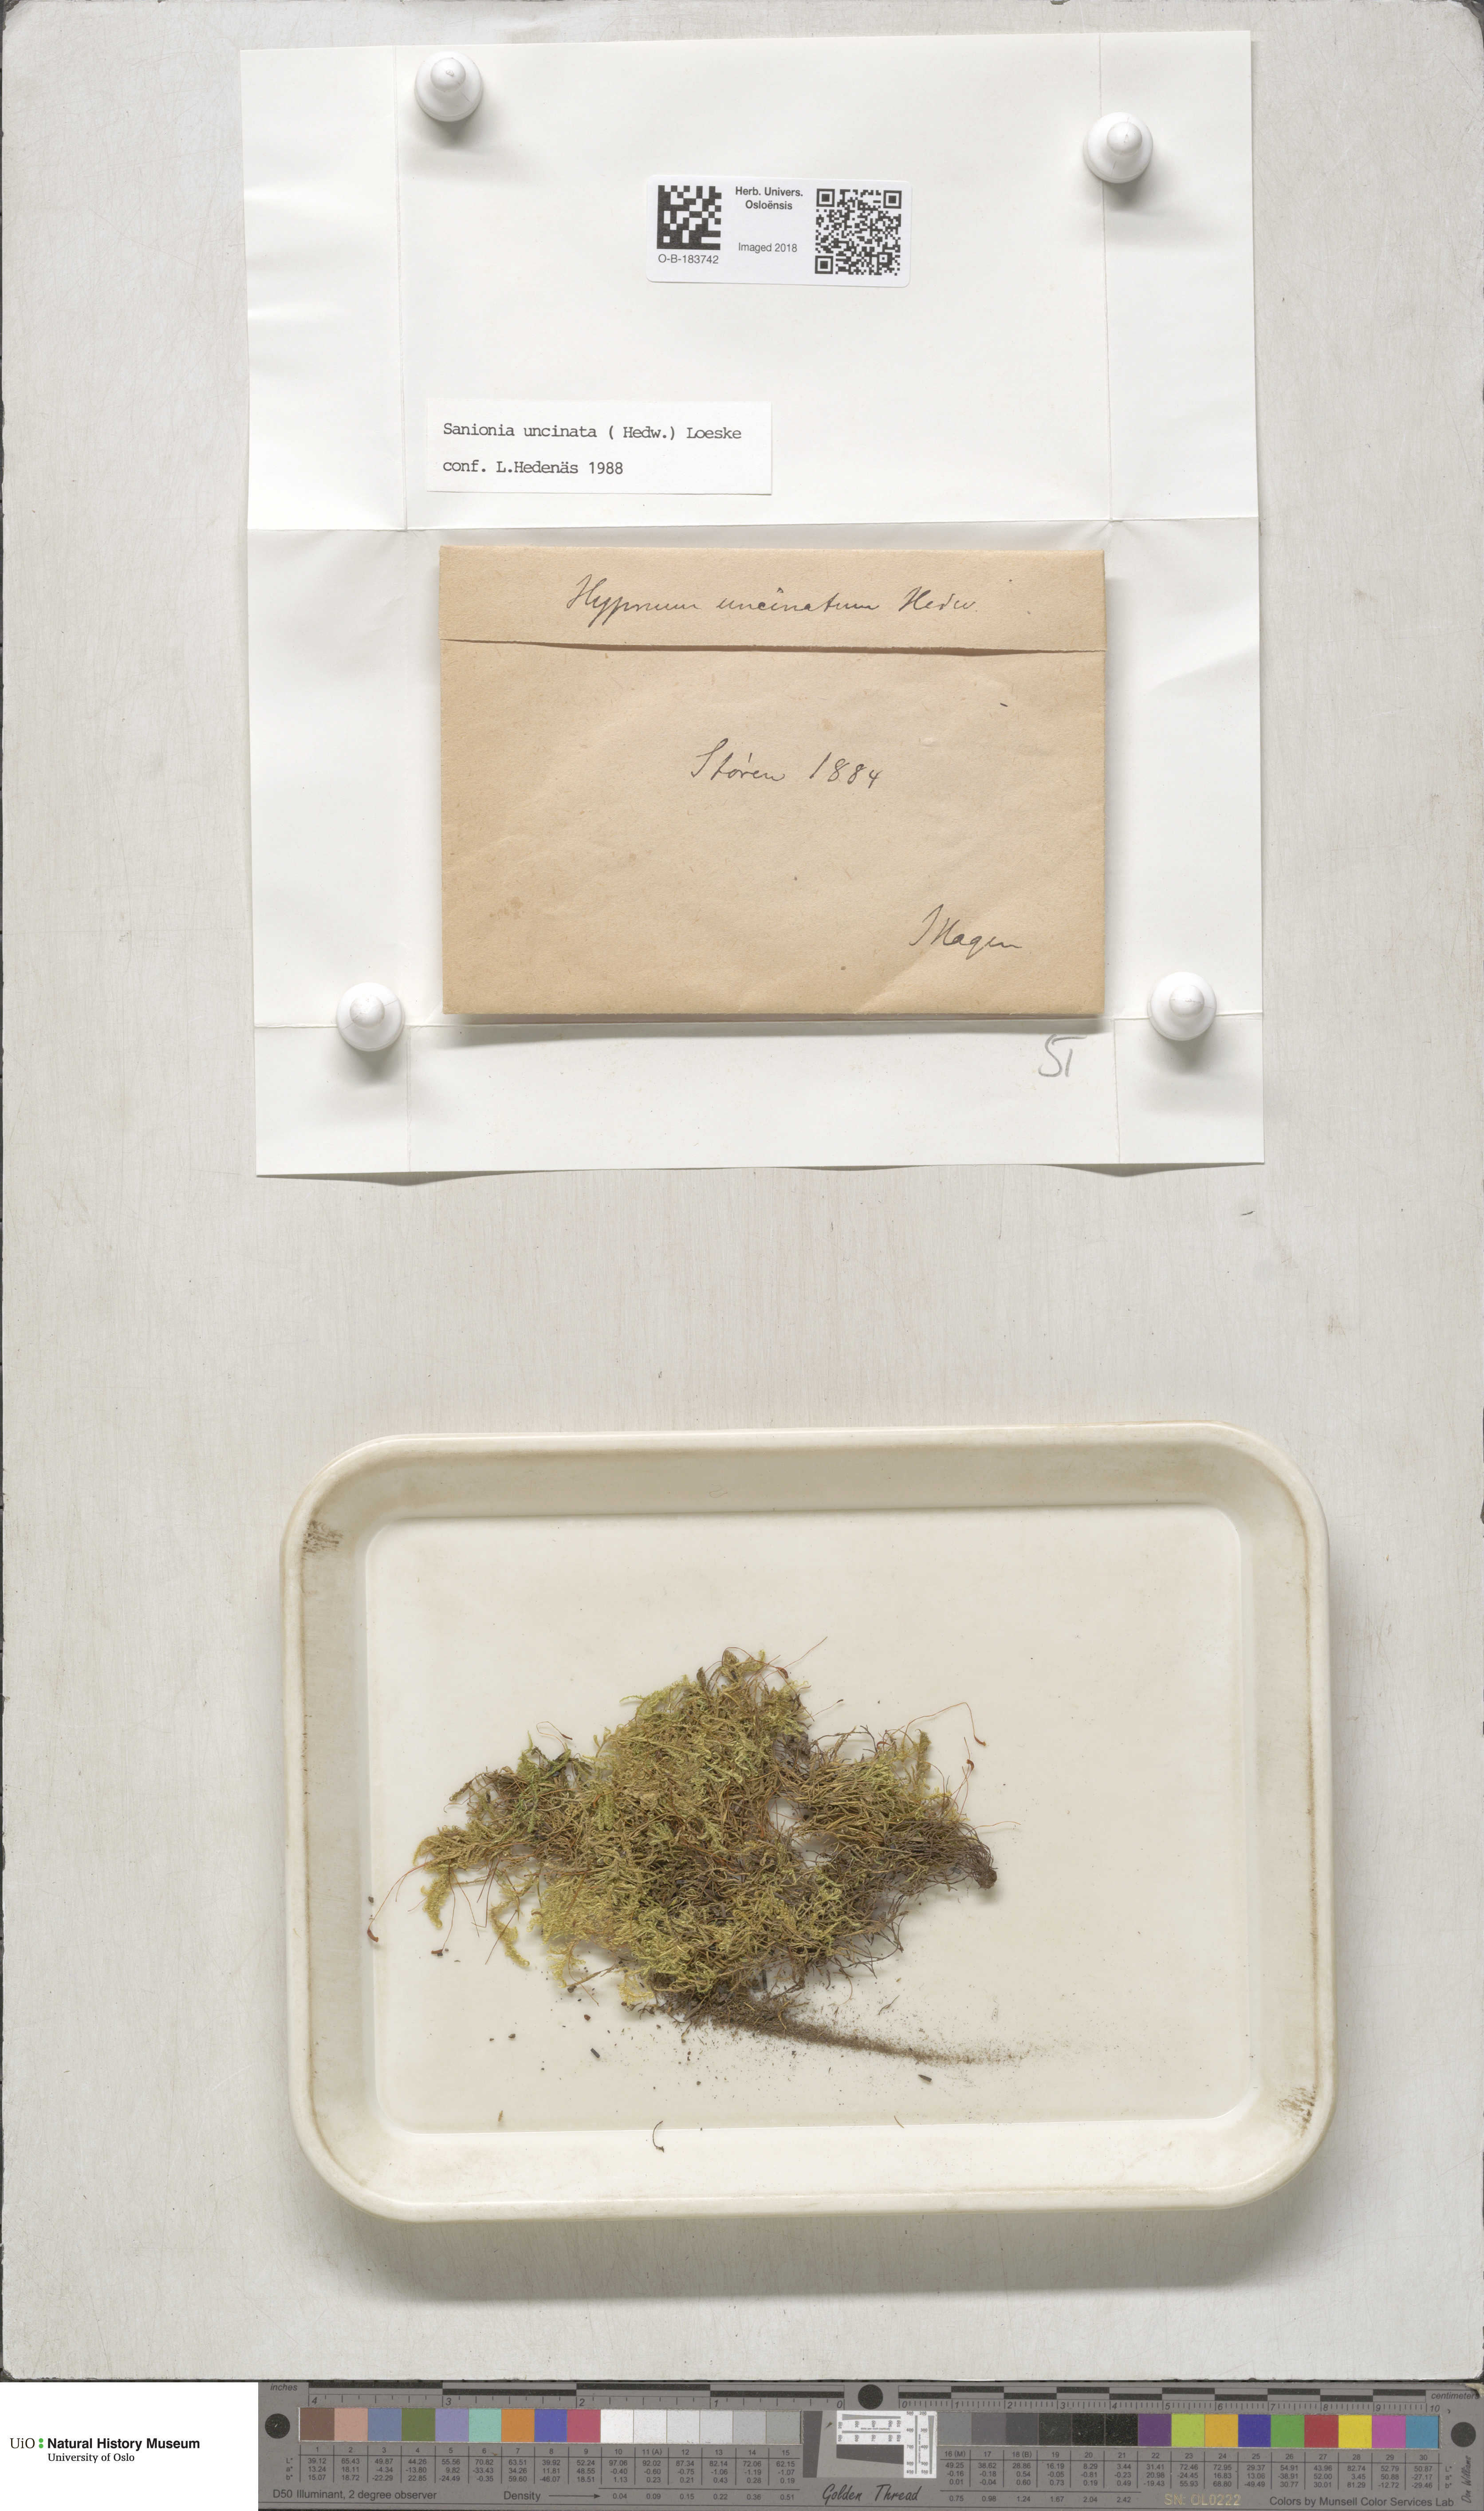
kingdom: Plantae
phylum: Bryophyta
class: Bryopsida
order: Hypnales
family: Scorpidiaceae
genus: Sanionia
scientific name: Sanionia uncinata
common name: Sickle moss
